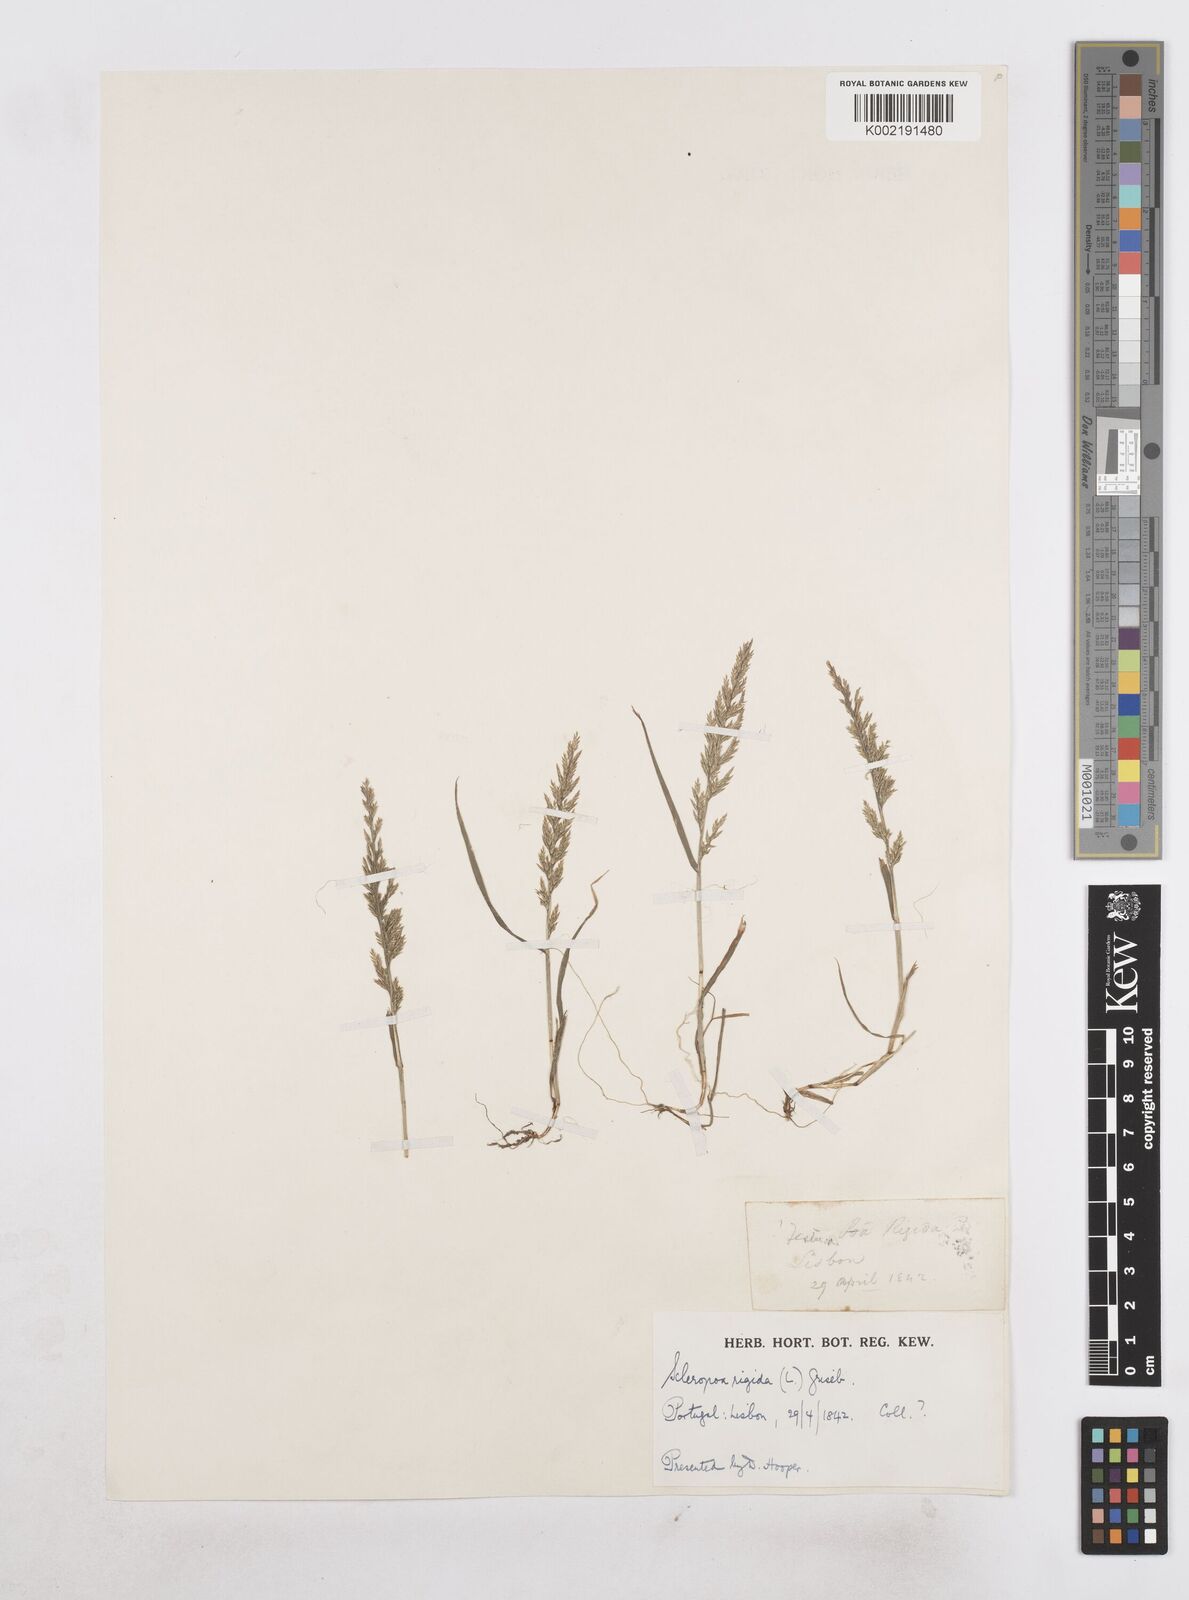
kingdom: Plantae
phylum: Tracheophyta
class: Liliopsida
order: Poales
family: Poaceae
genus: Catapodium
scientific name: Catapodium rigidum
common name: Fern-grass
